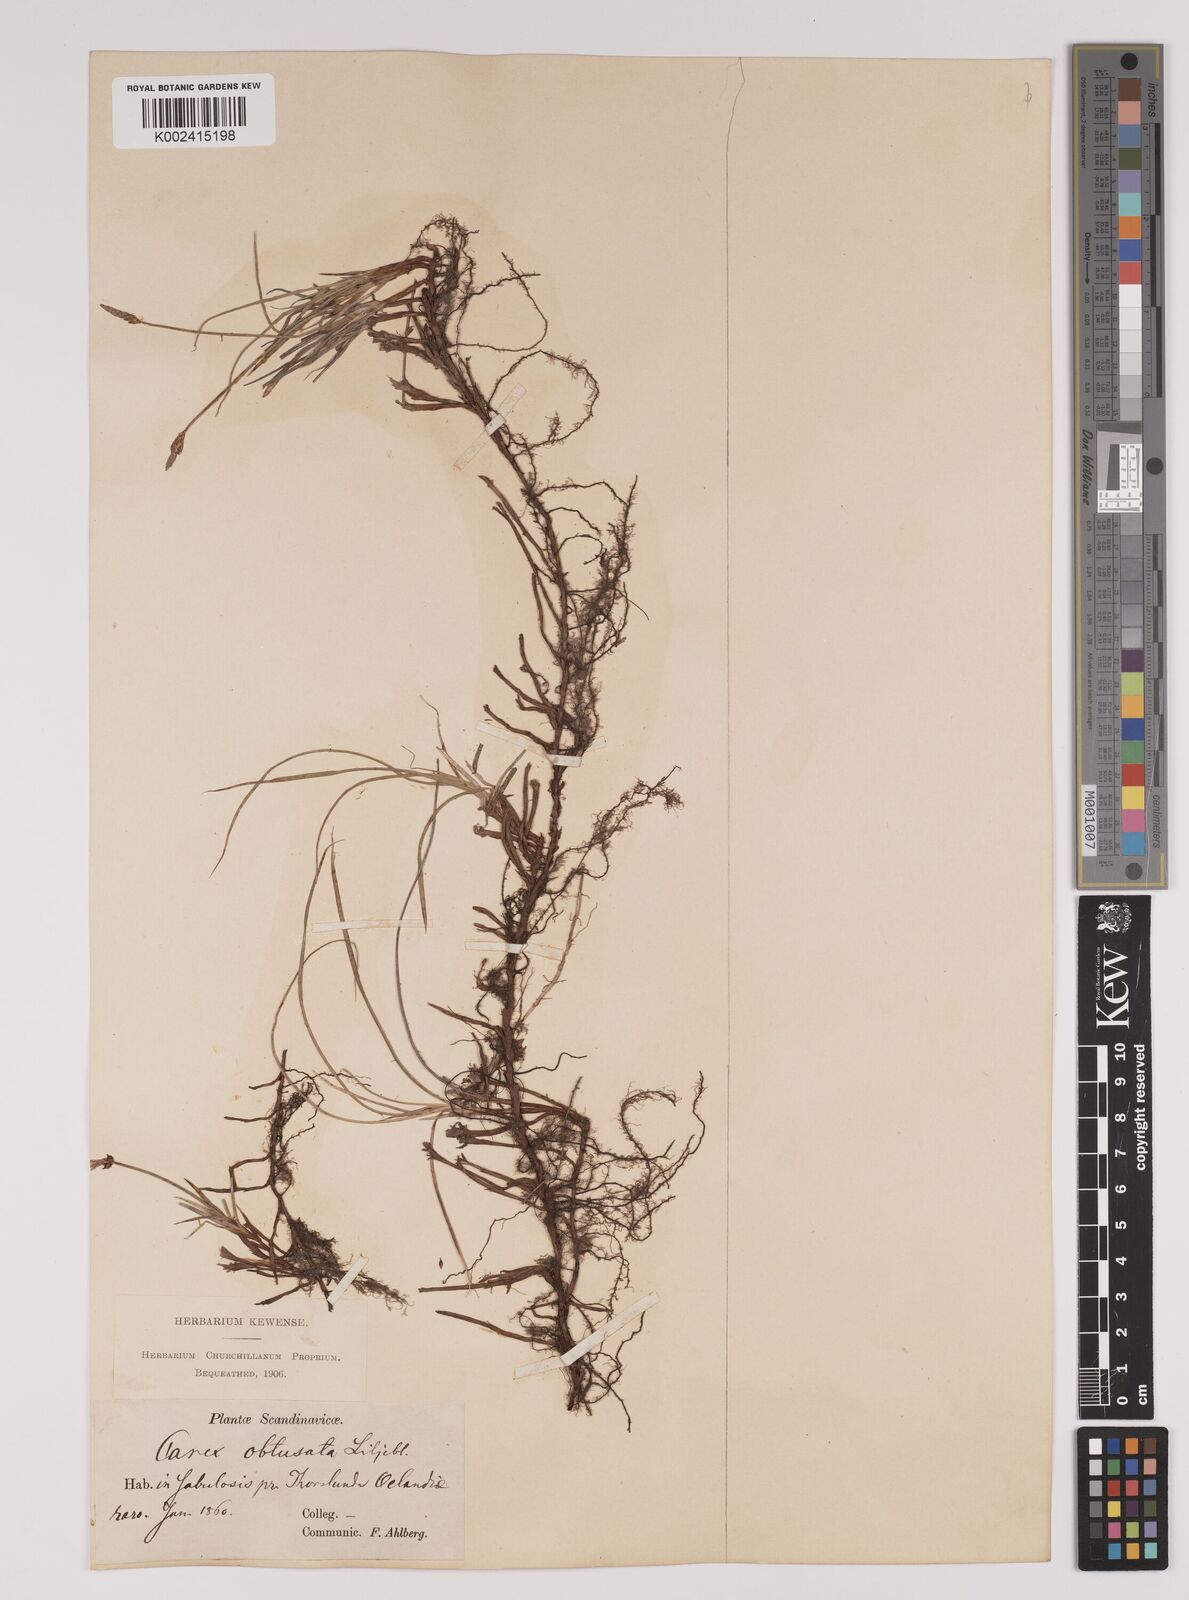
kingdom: Plantae
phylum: Tracheophyta
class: Liliopsida
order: Poales
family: Cyperaceae
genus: Carex
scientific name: Carex obtusata
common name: Blunt sedge
